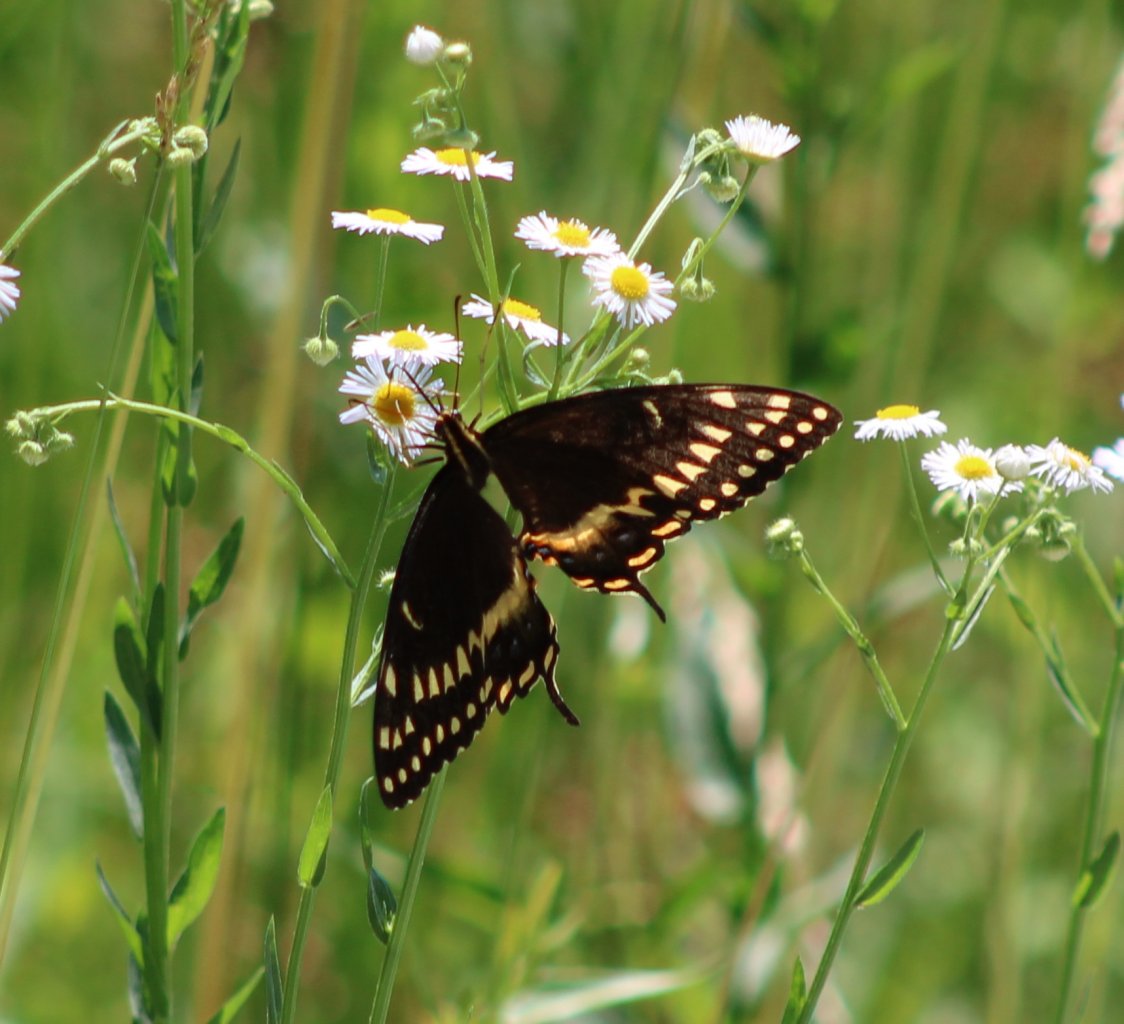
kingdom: Animalia
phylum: Arthropoda
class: Insecta
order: Lepidoptera
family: Papilionidae
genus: Pterourus
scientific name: Pterourus palamedes
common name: Palamedes Swallowtail
